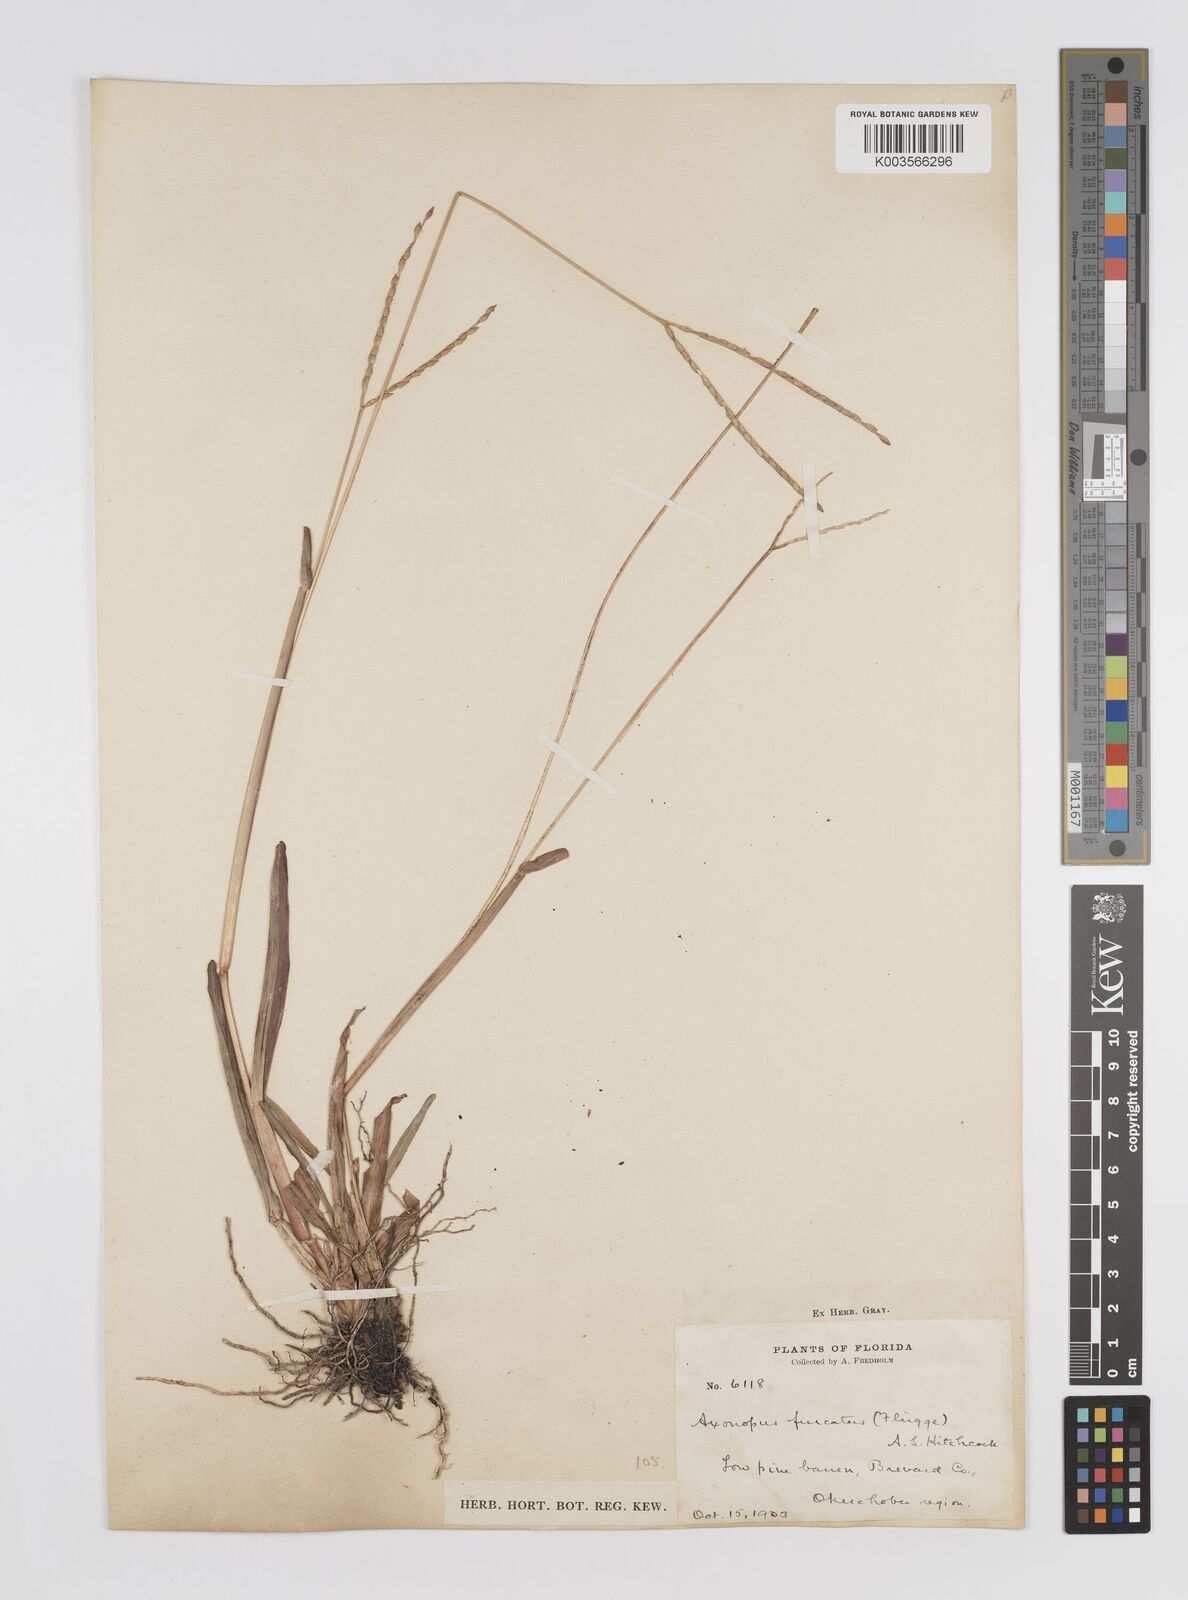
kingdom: Plantae
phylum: Tracheophyta
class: Liliopsida
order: Poales
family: Poaceae
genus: Axonopus
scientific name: Axonopus furcatus
